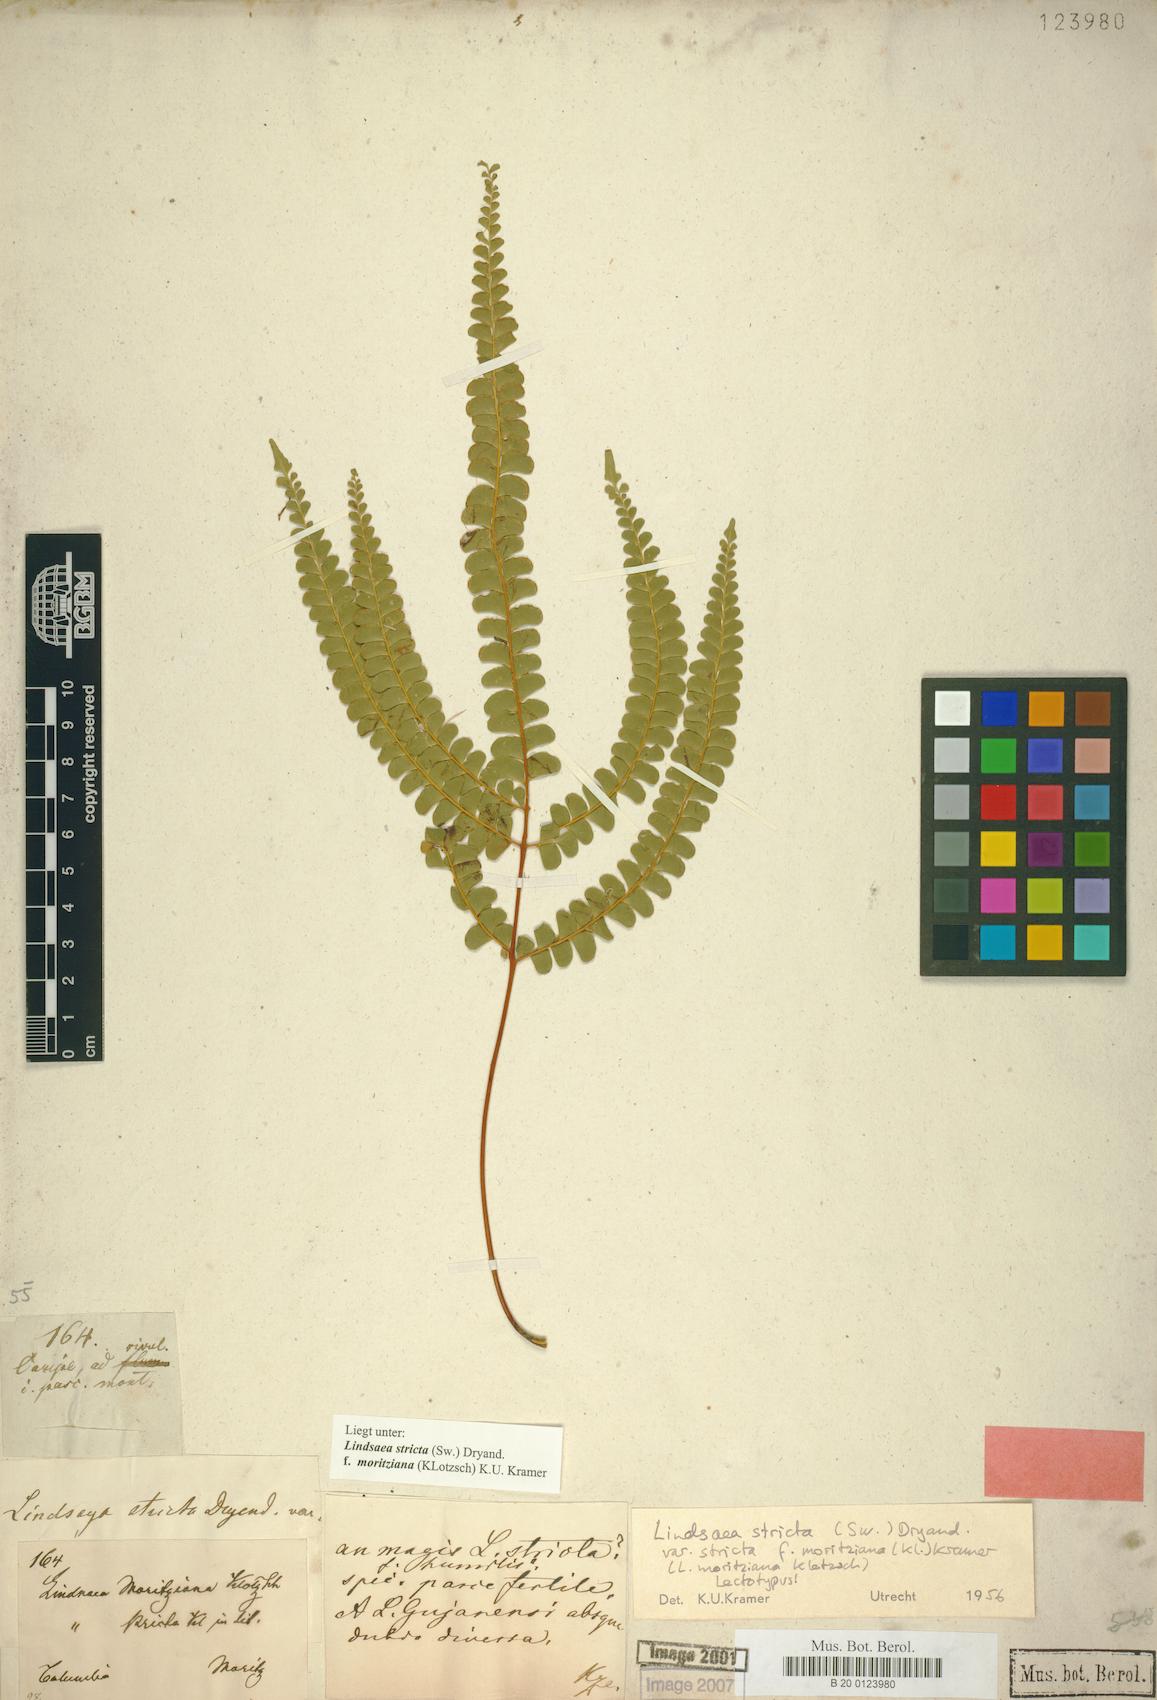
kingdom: Plantae
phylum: Tracheophyta
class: Polypodiopsida
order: Polypodiales
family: Lindsaeaceae
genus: Lindsaea
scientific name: Lindsaea guianensis
